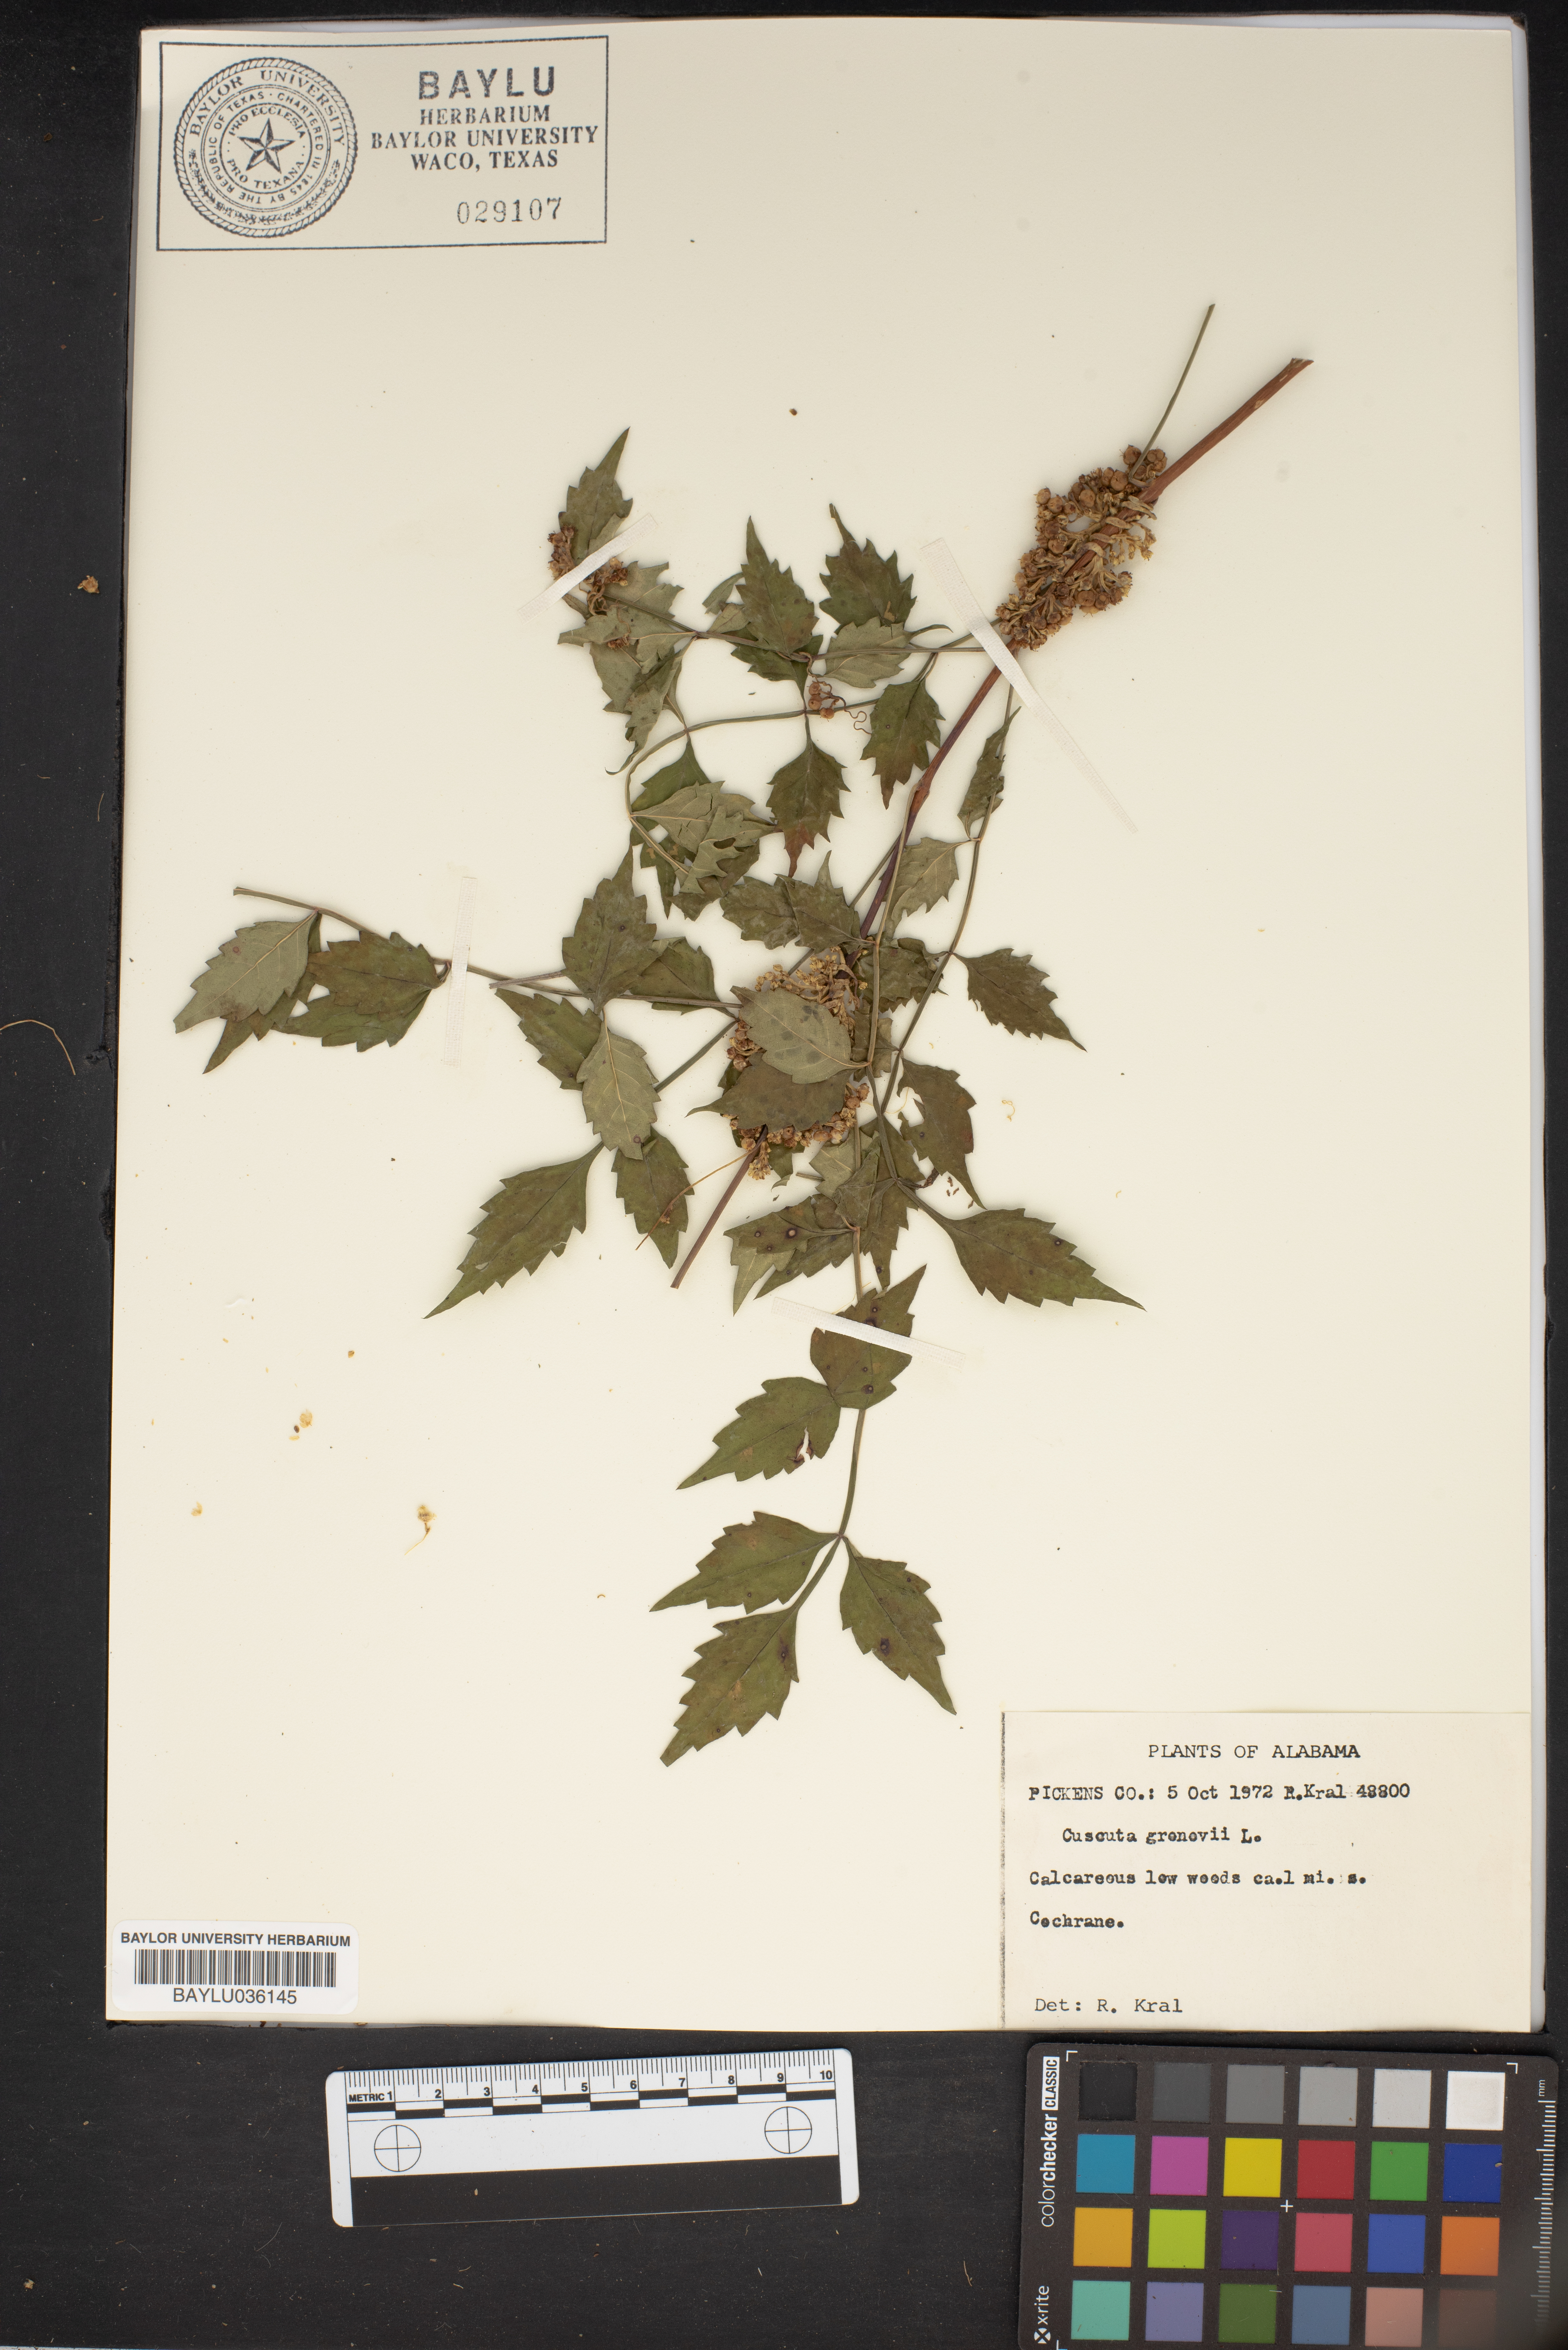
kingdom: Plantae
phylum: Tracheophyta
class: Magnoliopsida
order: Solanales
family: Convolvulaceae
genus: Cuscuta
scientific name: Cuscuta gronovii
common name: Common dodder
